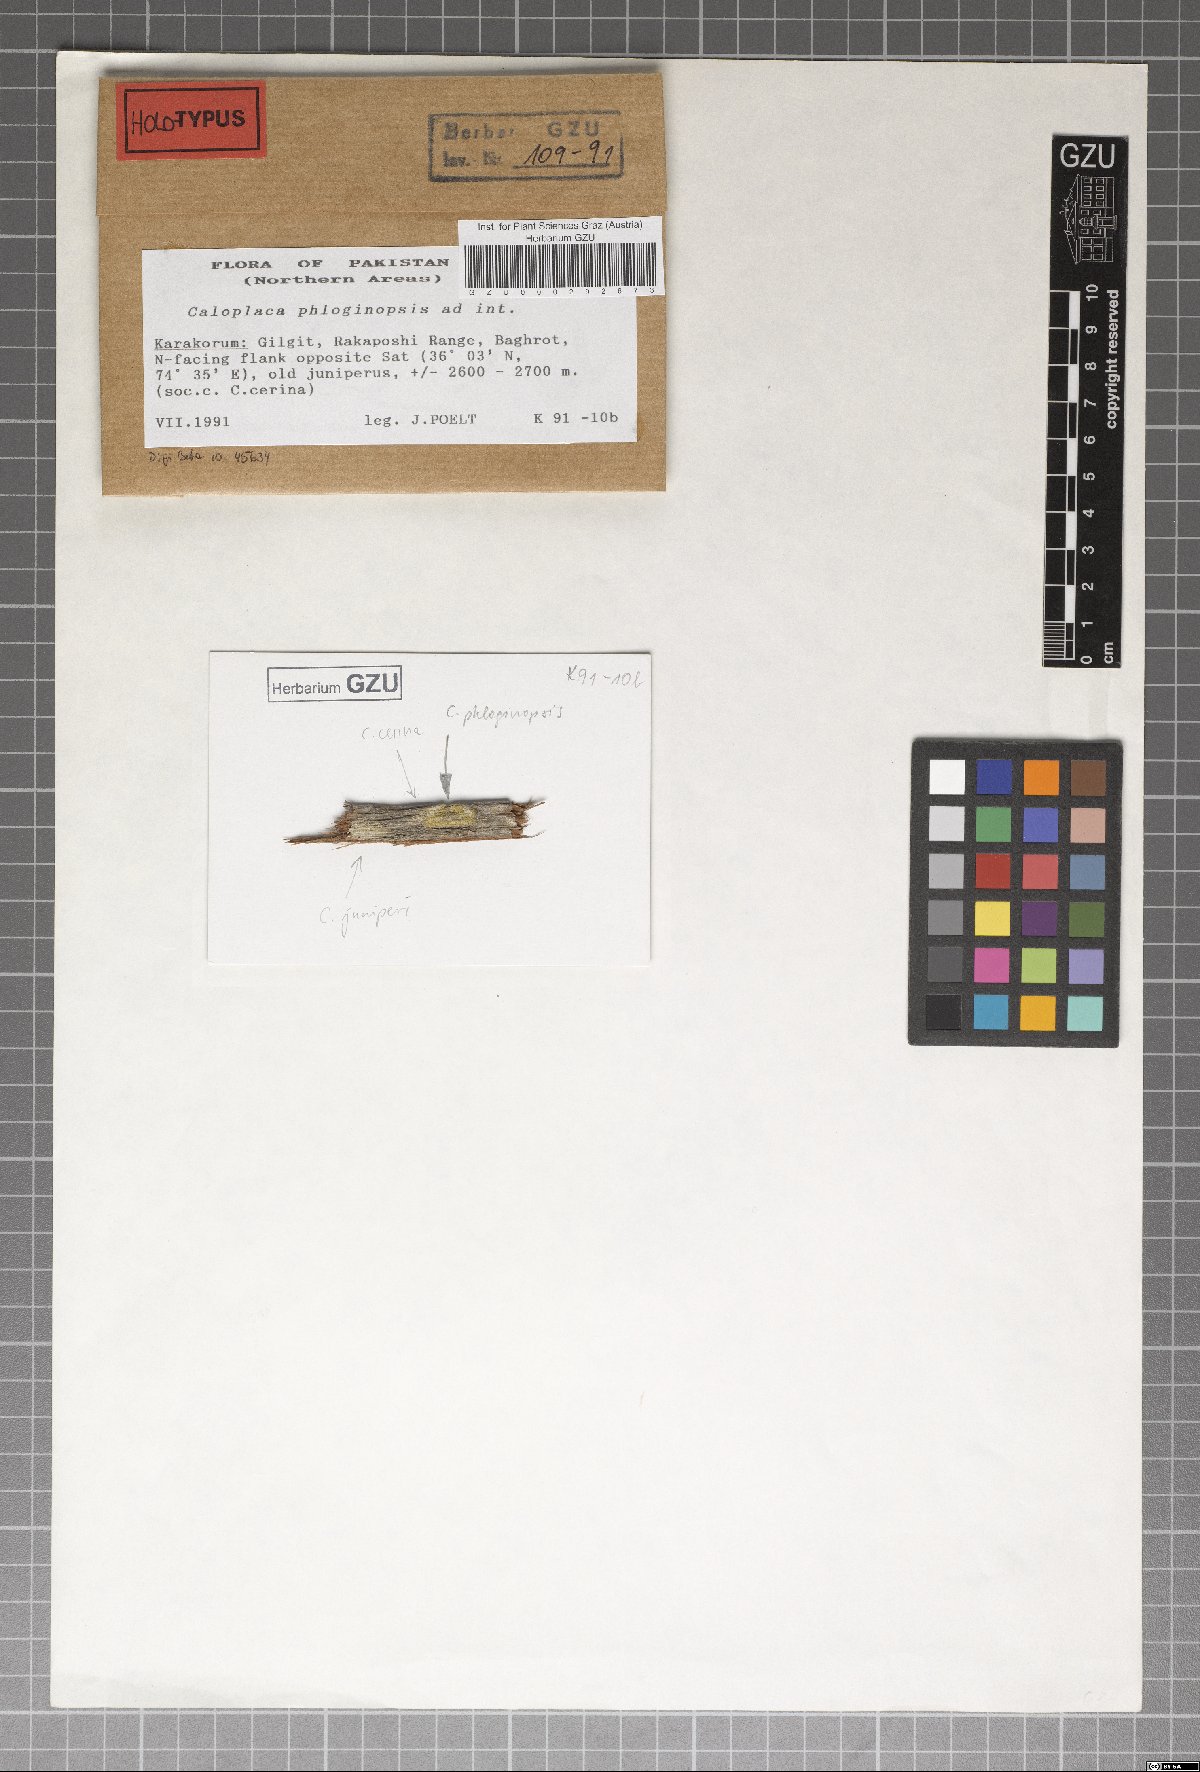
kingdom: Fungi
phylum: Ascomycota
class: Lecanoromycetes
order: Teloschistales
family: Teloschistaceae
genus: Caloplaca
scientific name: Caloplaca
